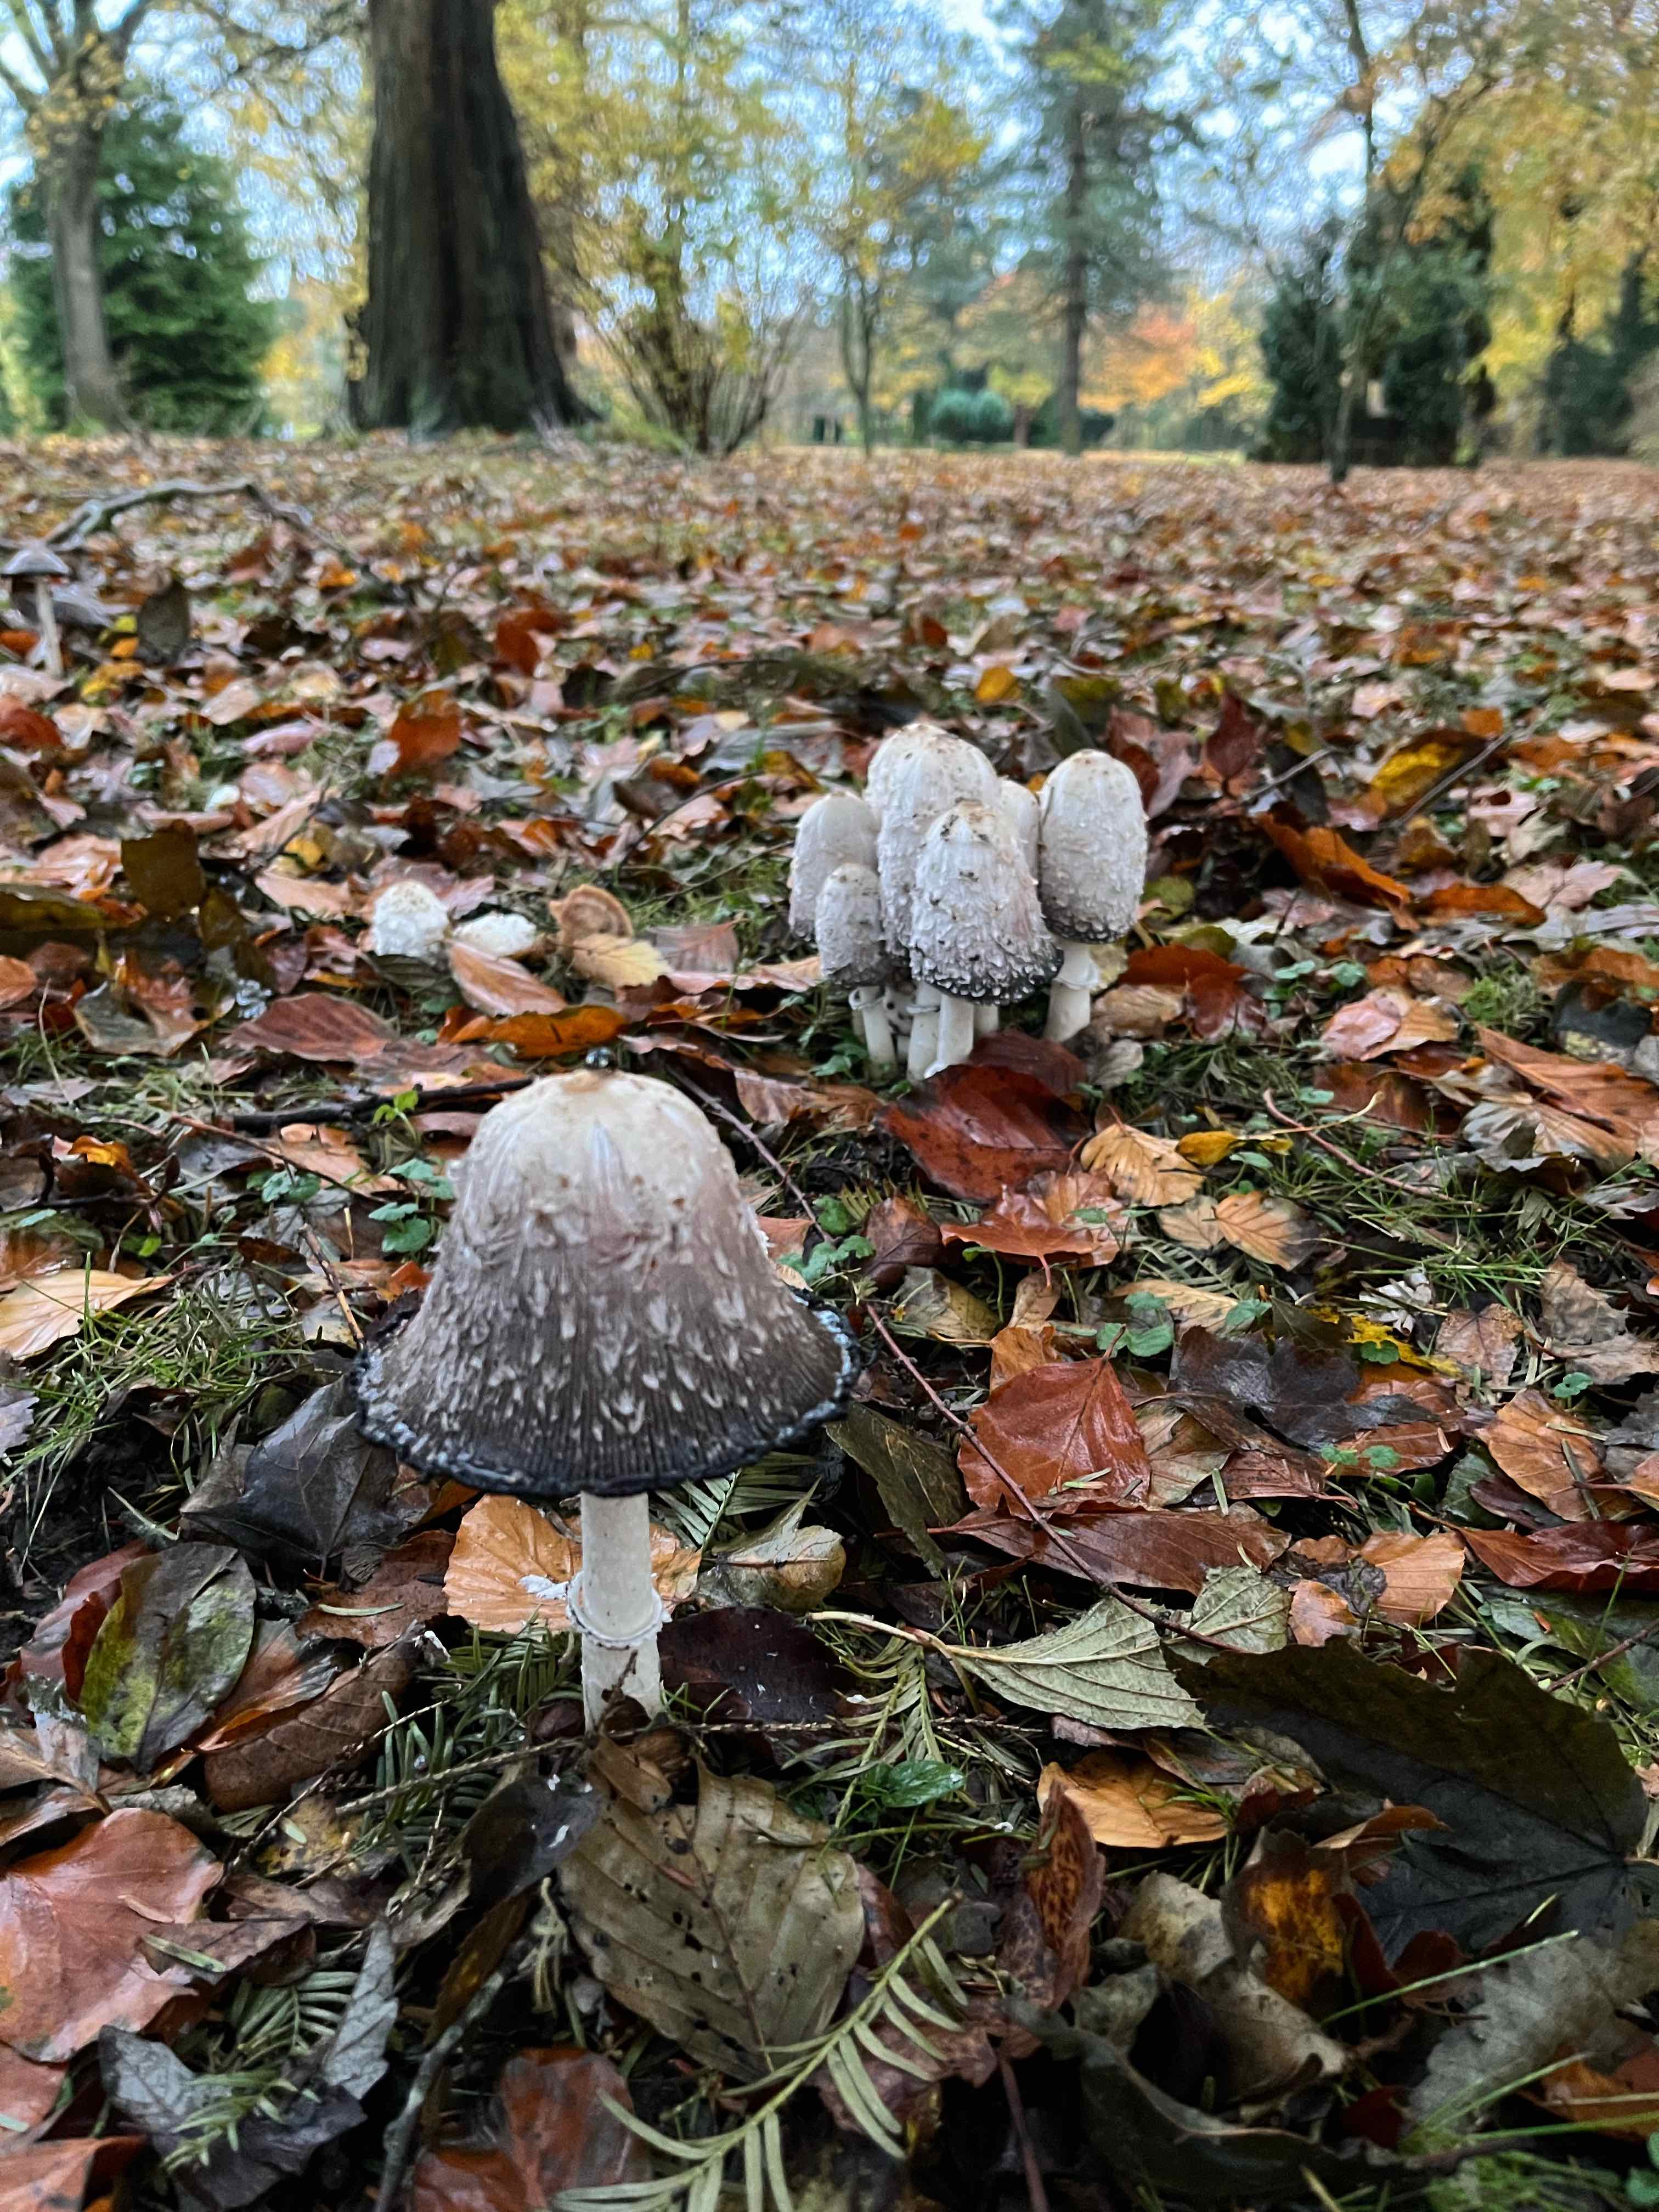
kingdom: Fungi
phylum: Basidiomycota
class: Agaricomycetes
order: Agaricales
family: Agaricaceae
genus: Coprinus
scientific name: Coprinus comatus
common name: stor parykhat
